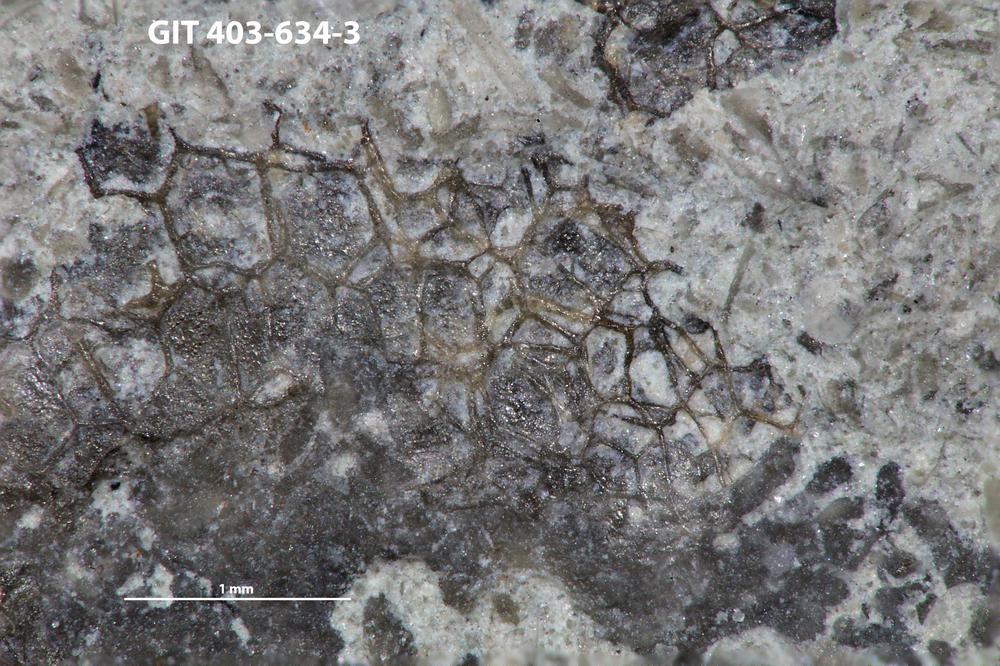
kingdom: Animalia
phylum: Cnidaria
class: Anthozoa
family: Favositidae
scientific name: Favositidae
